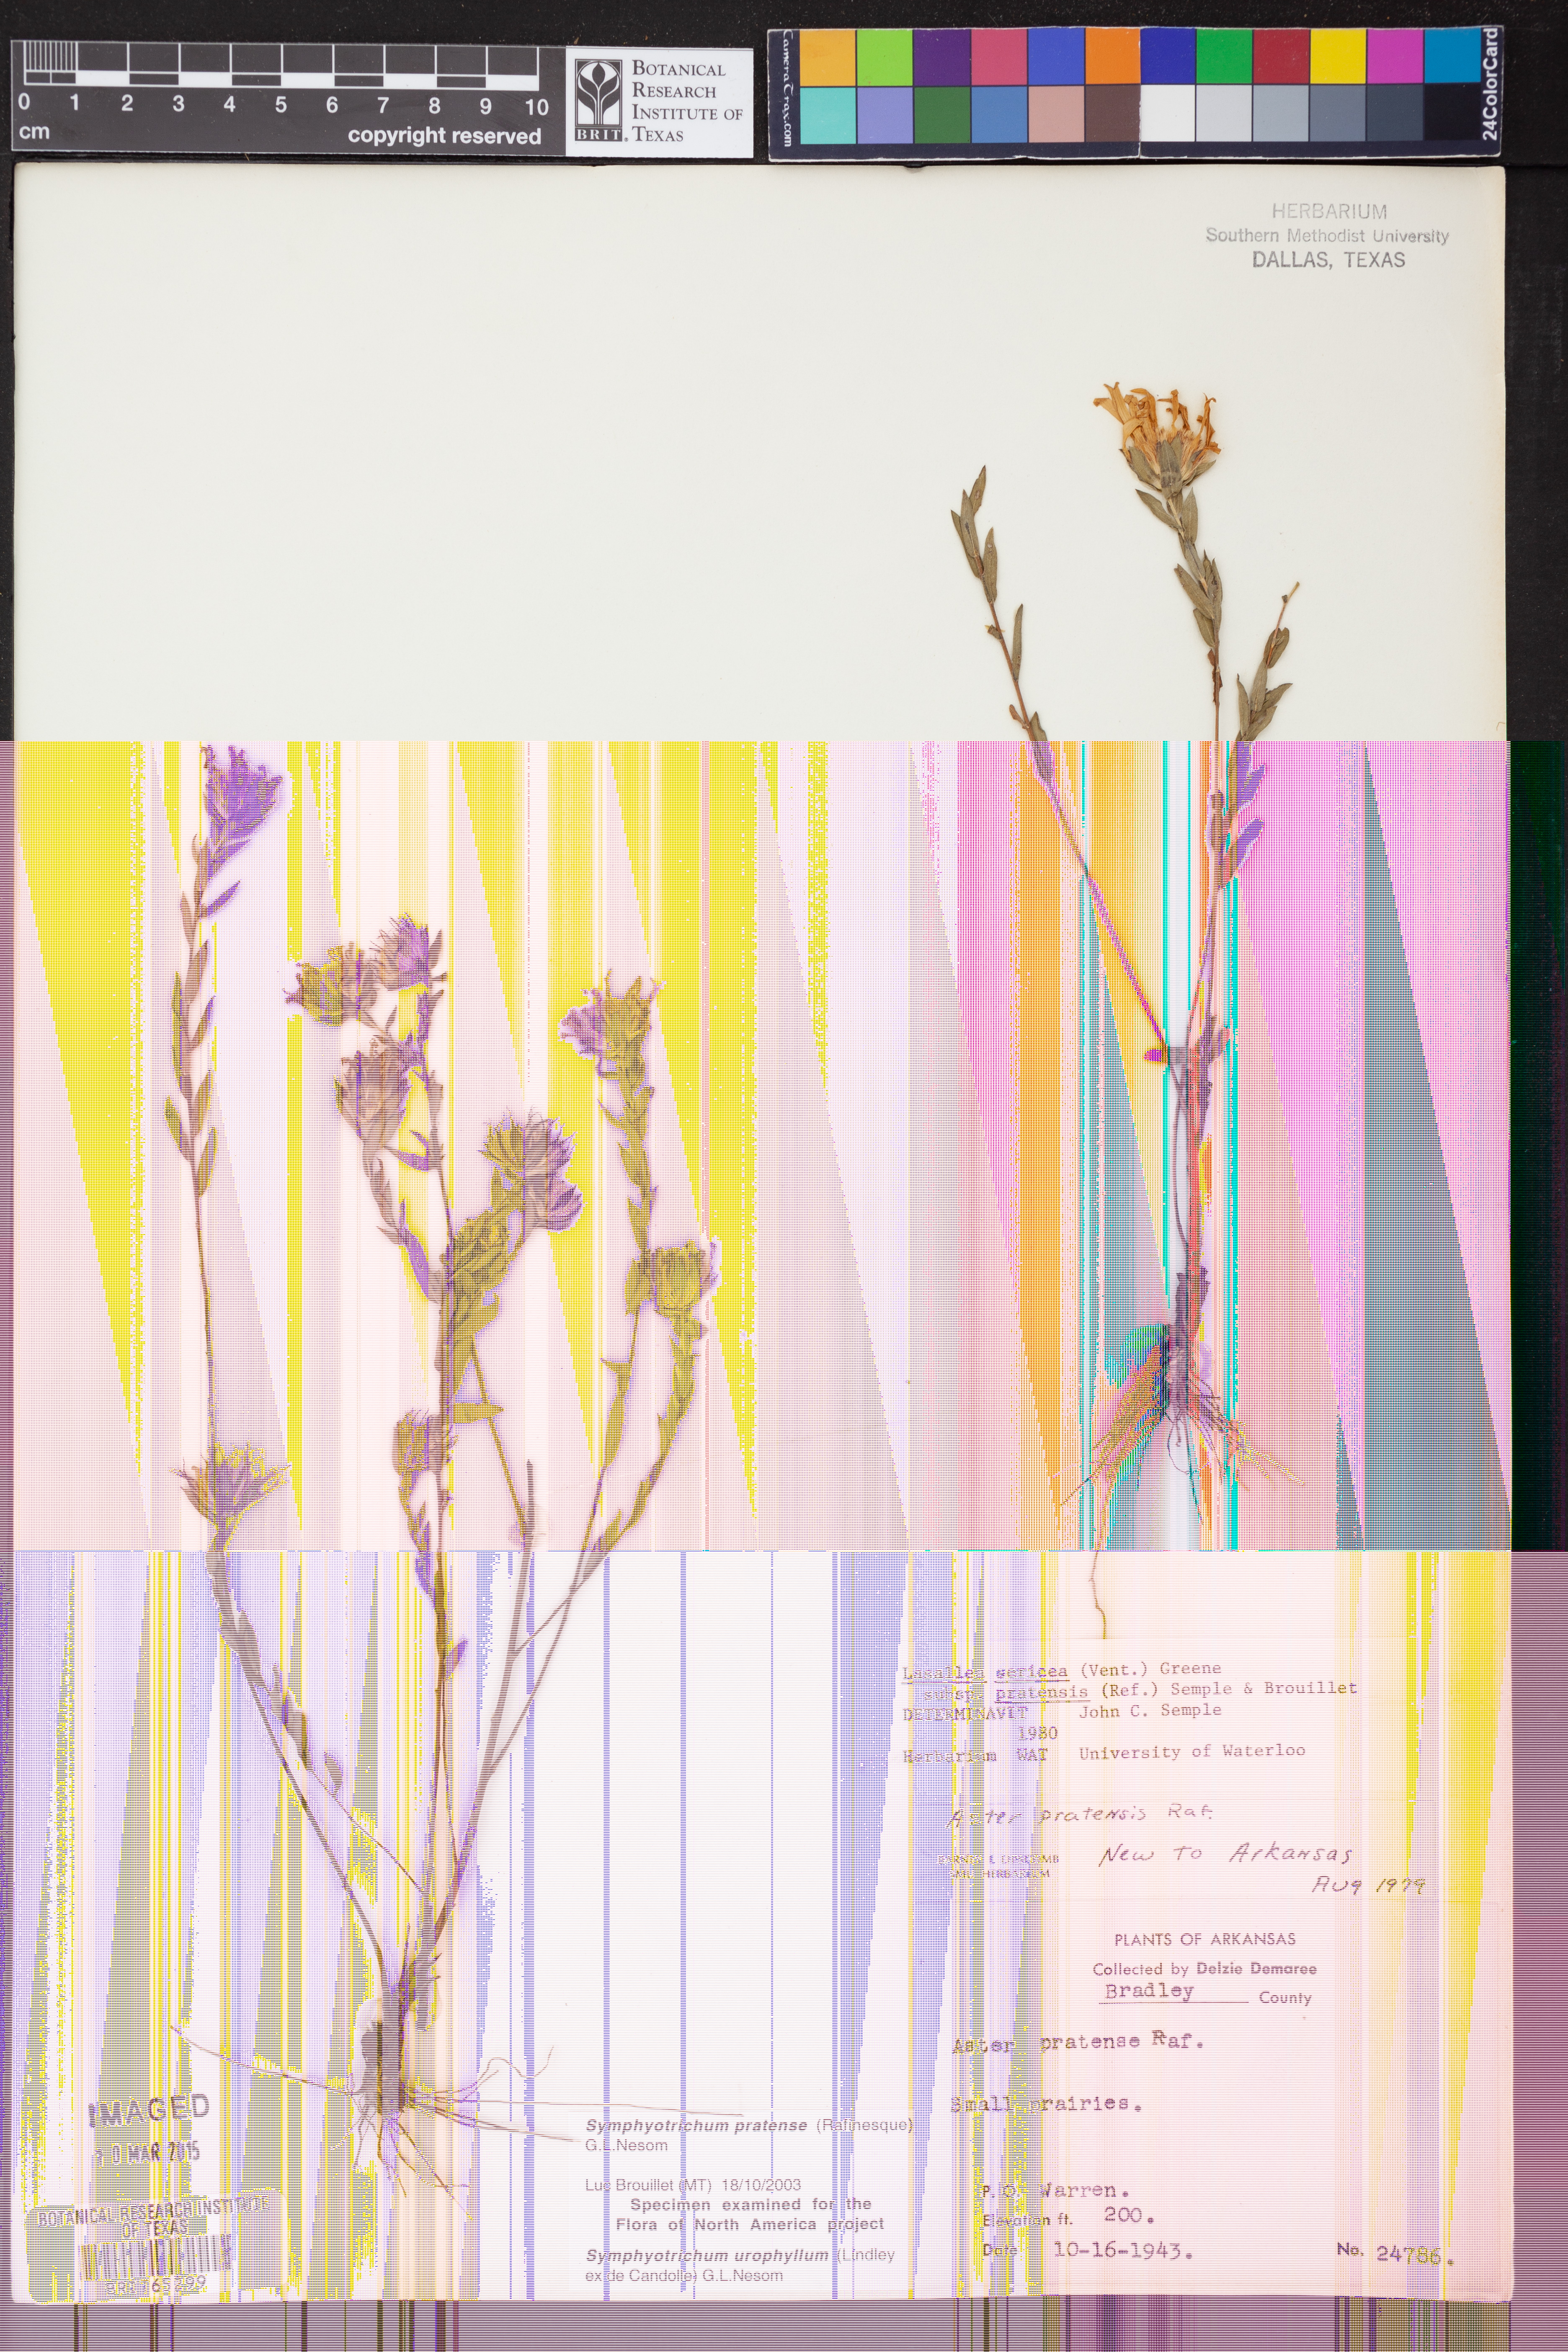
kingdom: Plantae
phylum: Tracheophyta
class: Magnoliopsida
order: Asterales
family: Asteraceae
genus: Symphyotrichum
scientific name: Symphyotrichum urophyllum
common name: Arrow-leaved aster
